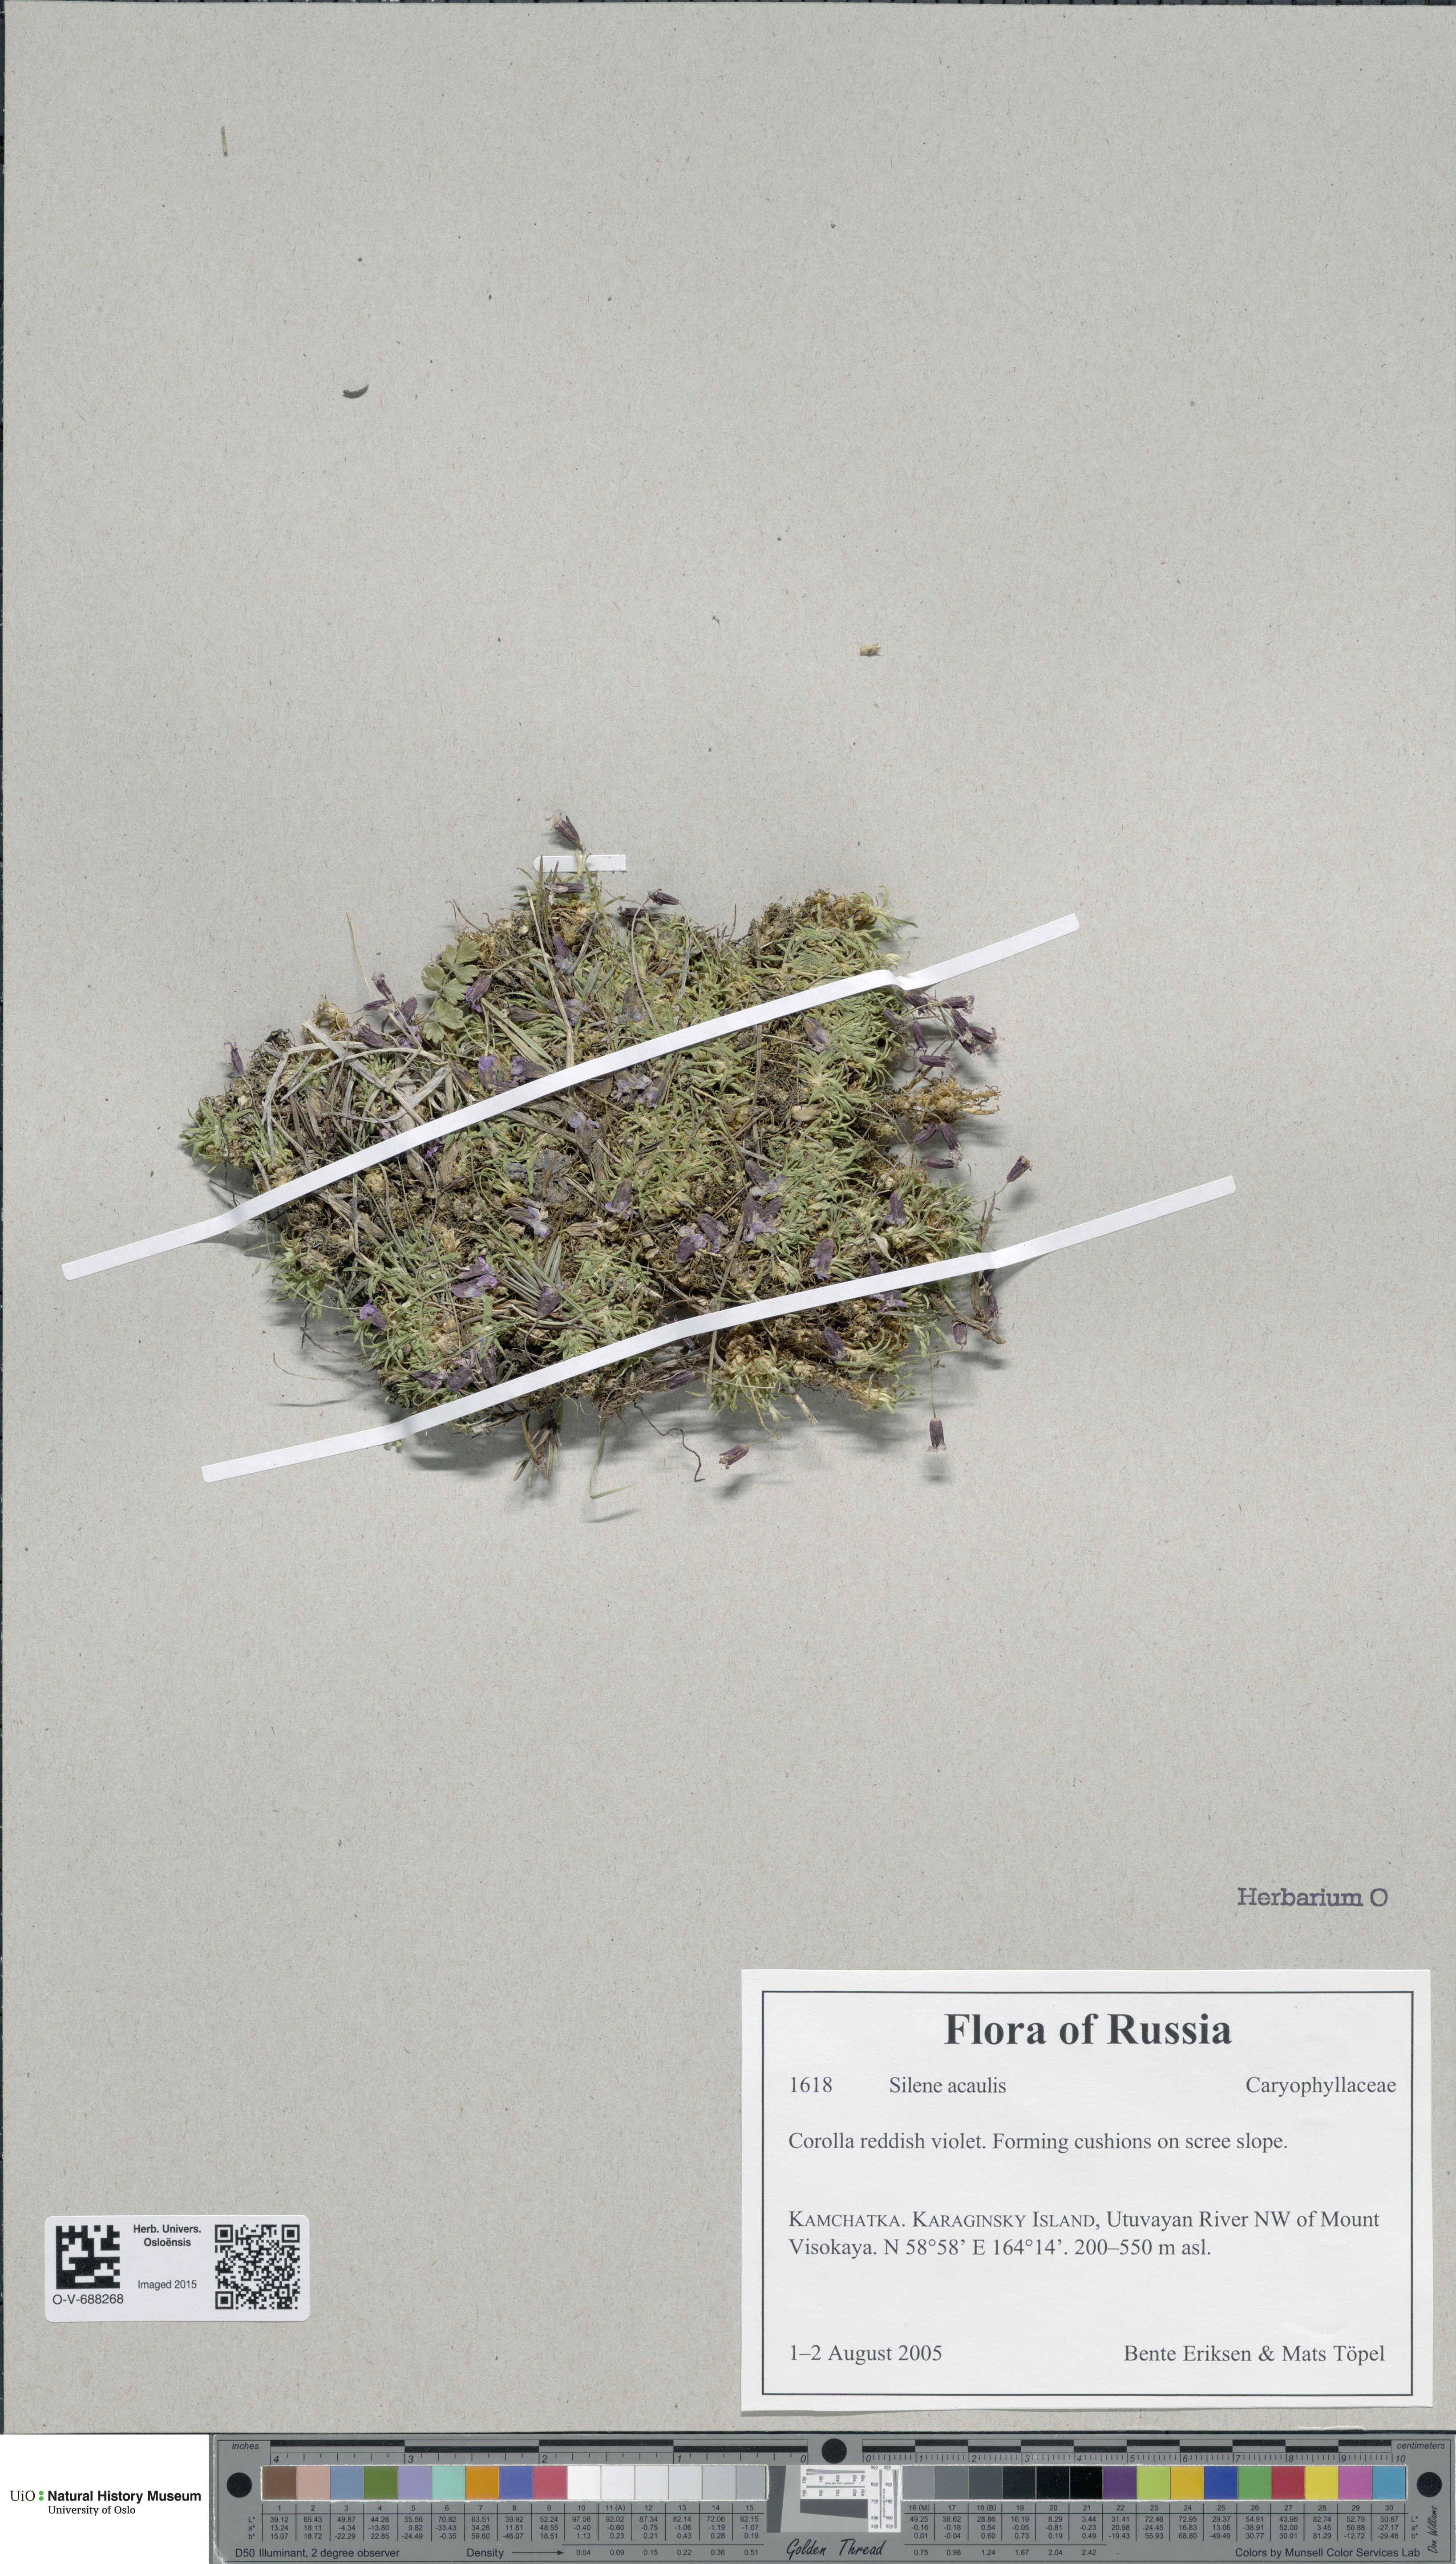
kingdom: Plantae
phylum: Tracheophyta
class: Magnoliopsida
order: Caryophyllales
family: Caryophyllaceae
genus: Silene
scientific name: Silene acaulis
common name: Moss campion
